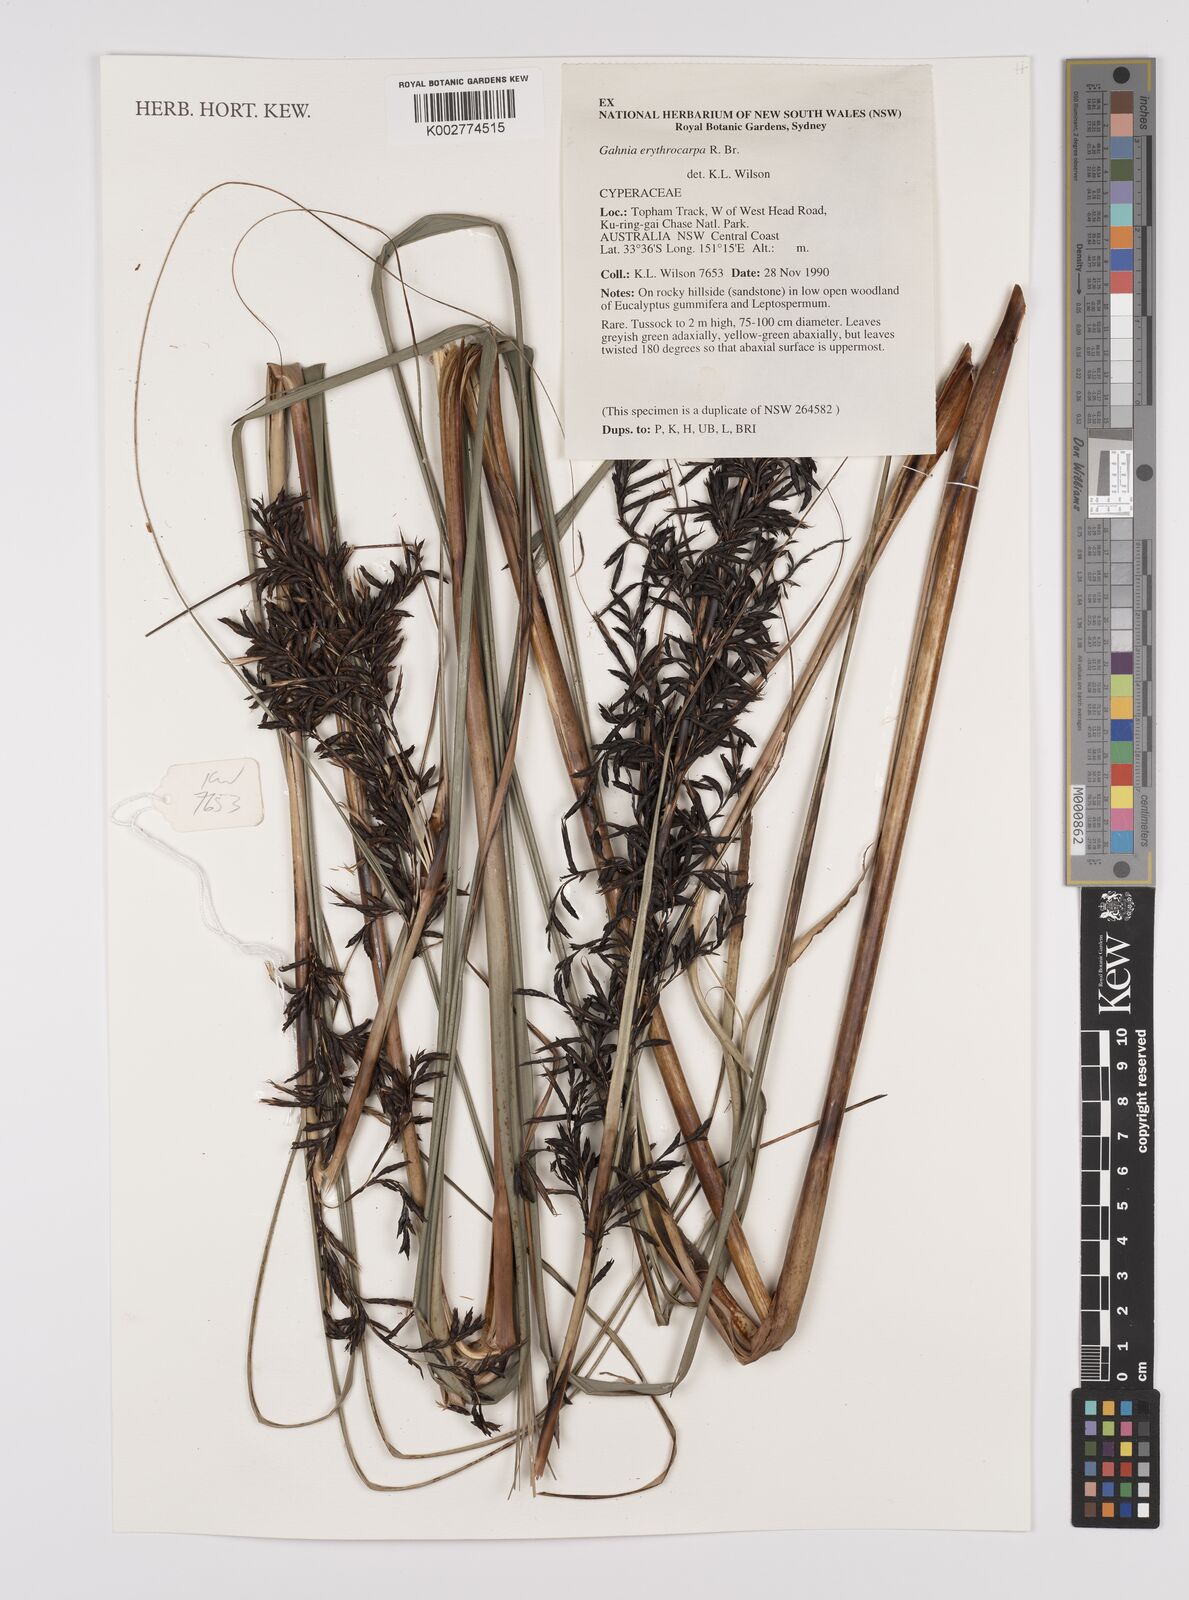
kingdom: Plantae
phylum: Tracheophyta
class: Liliopsida
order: Poales
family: Cyperaceae
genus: Gahnia
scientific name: Gahnia erythrocarpa
